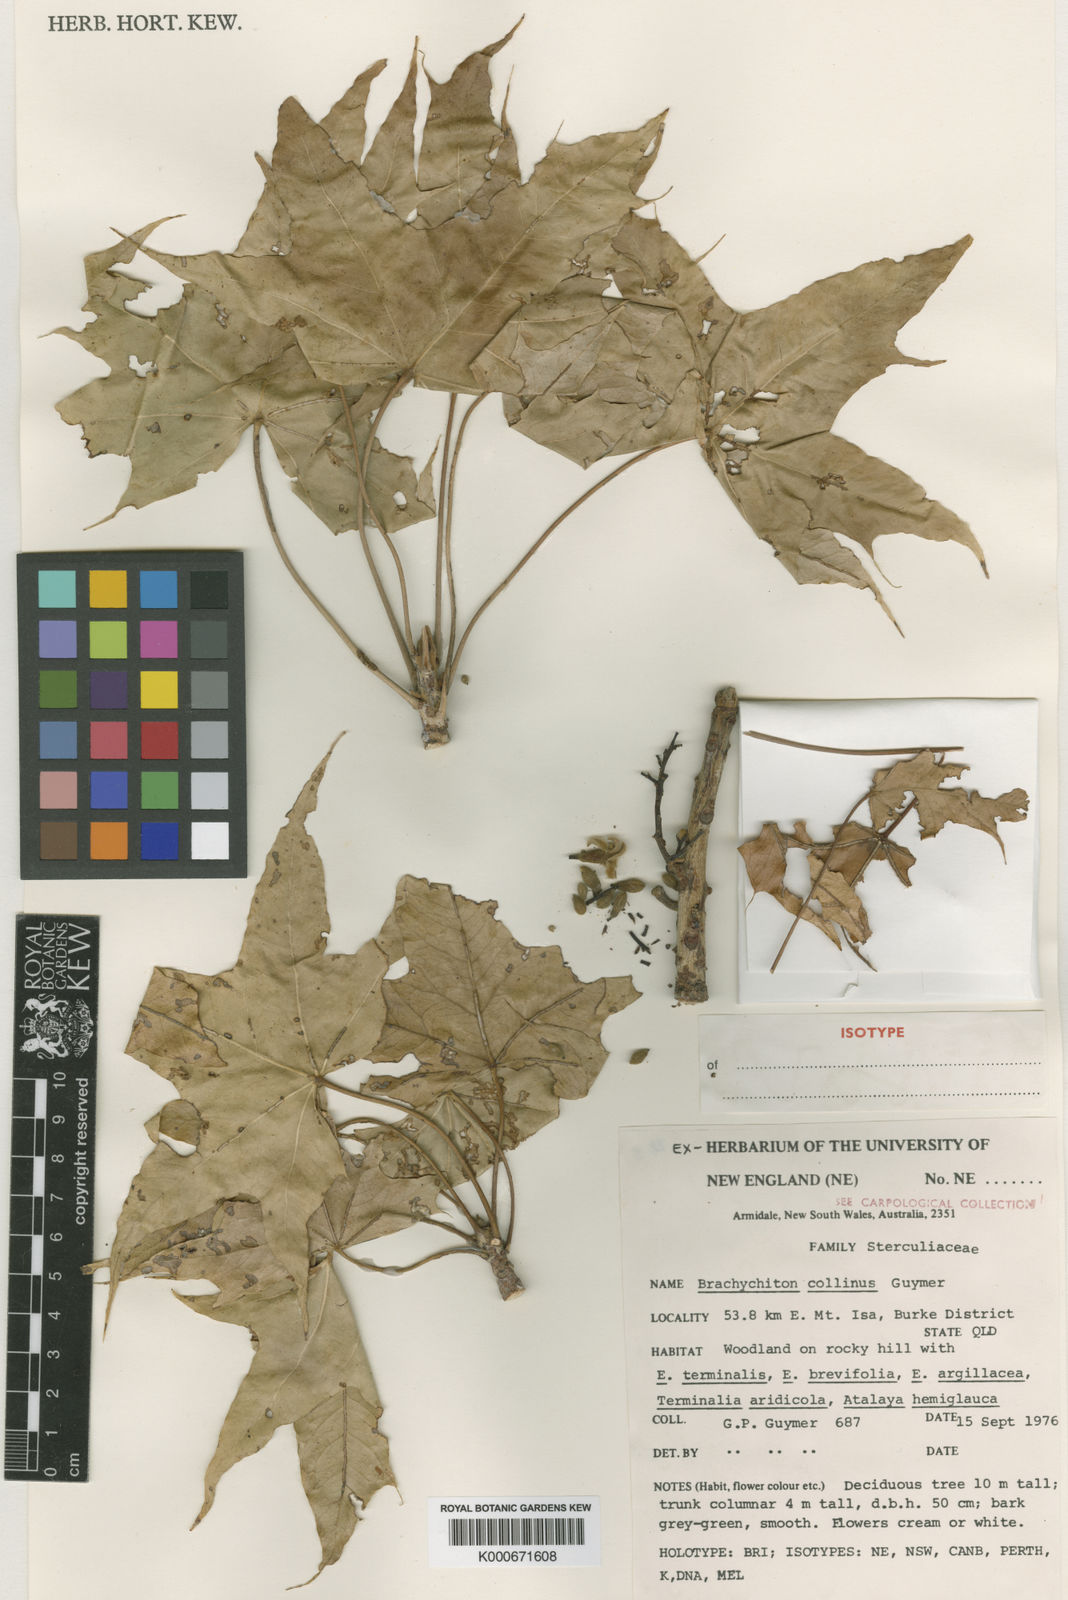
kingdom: Plantae
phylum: Tracheophyta
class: Magnoliopsida
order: Malvales
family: Malvaceae
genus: Brachychiton
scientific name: Brachychiton collinus
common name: Hill kurrajong
